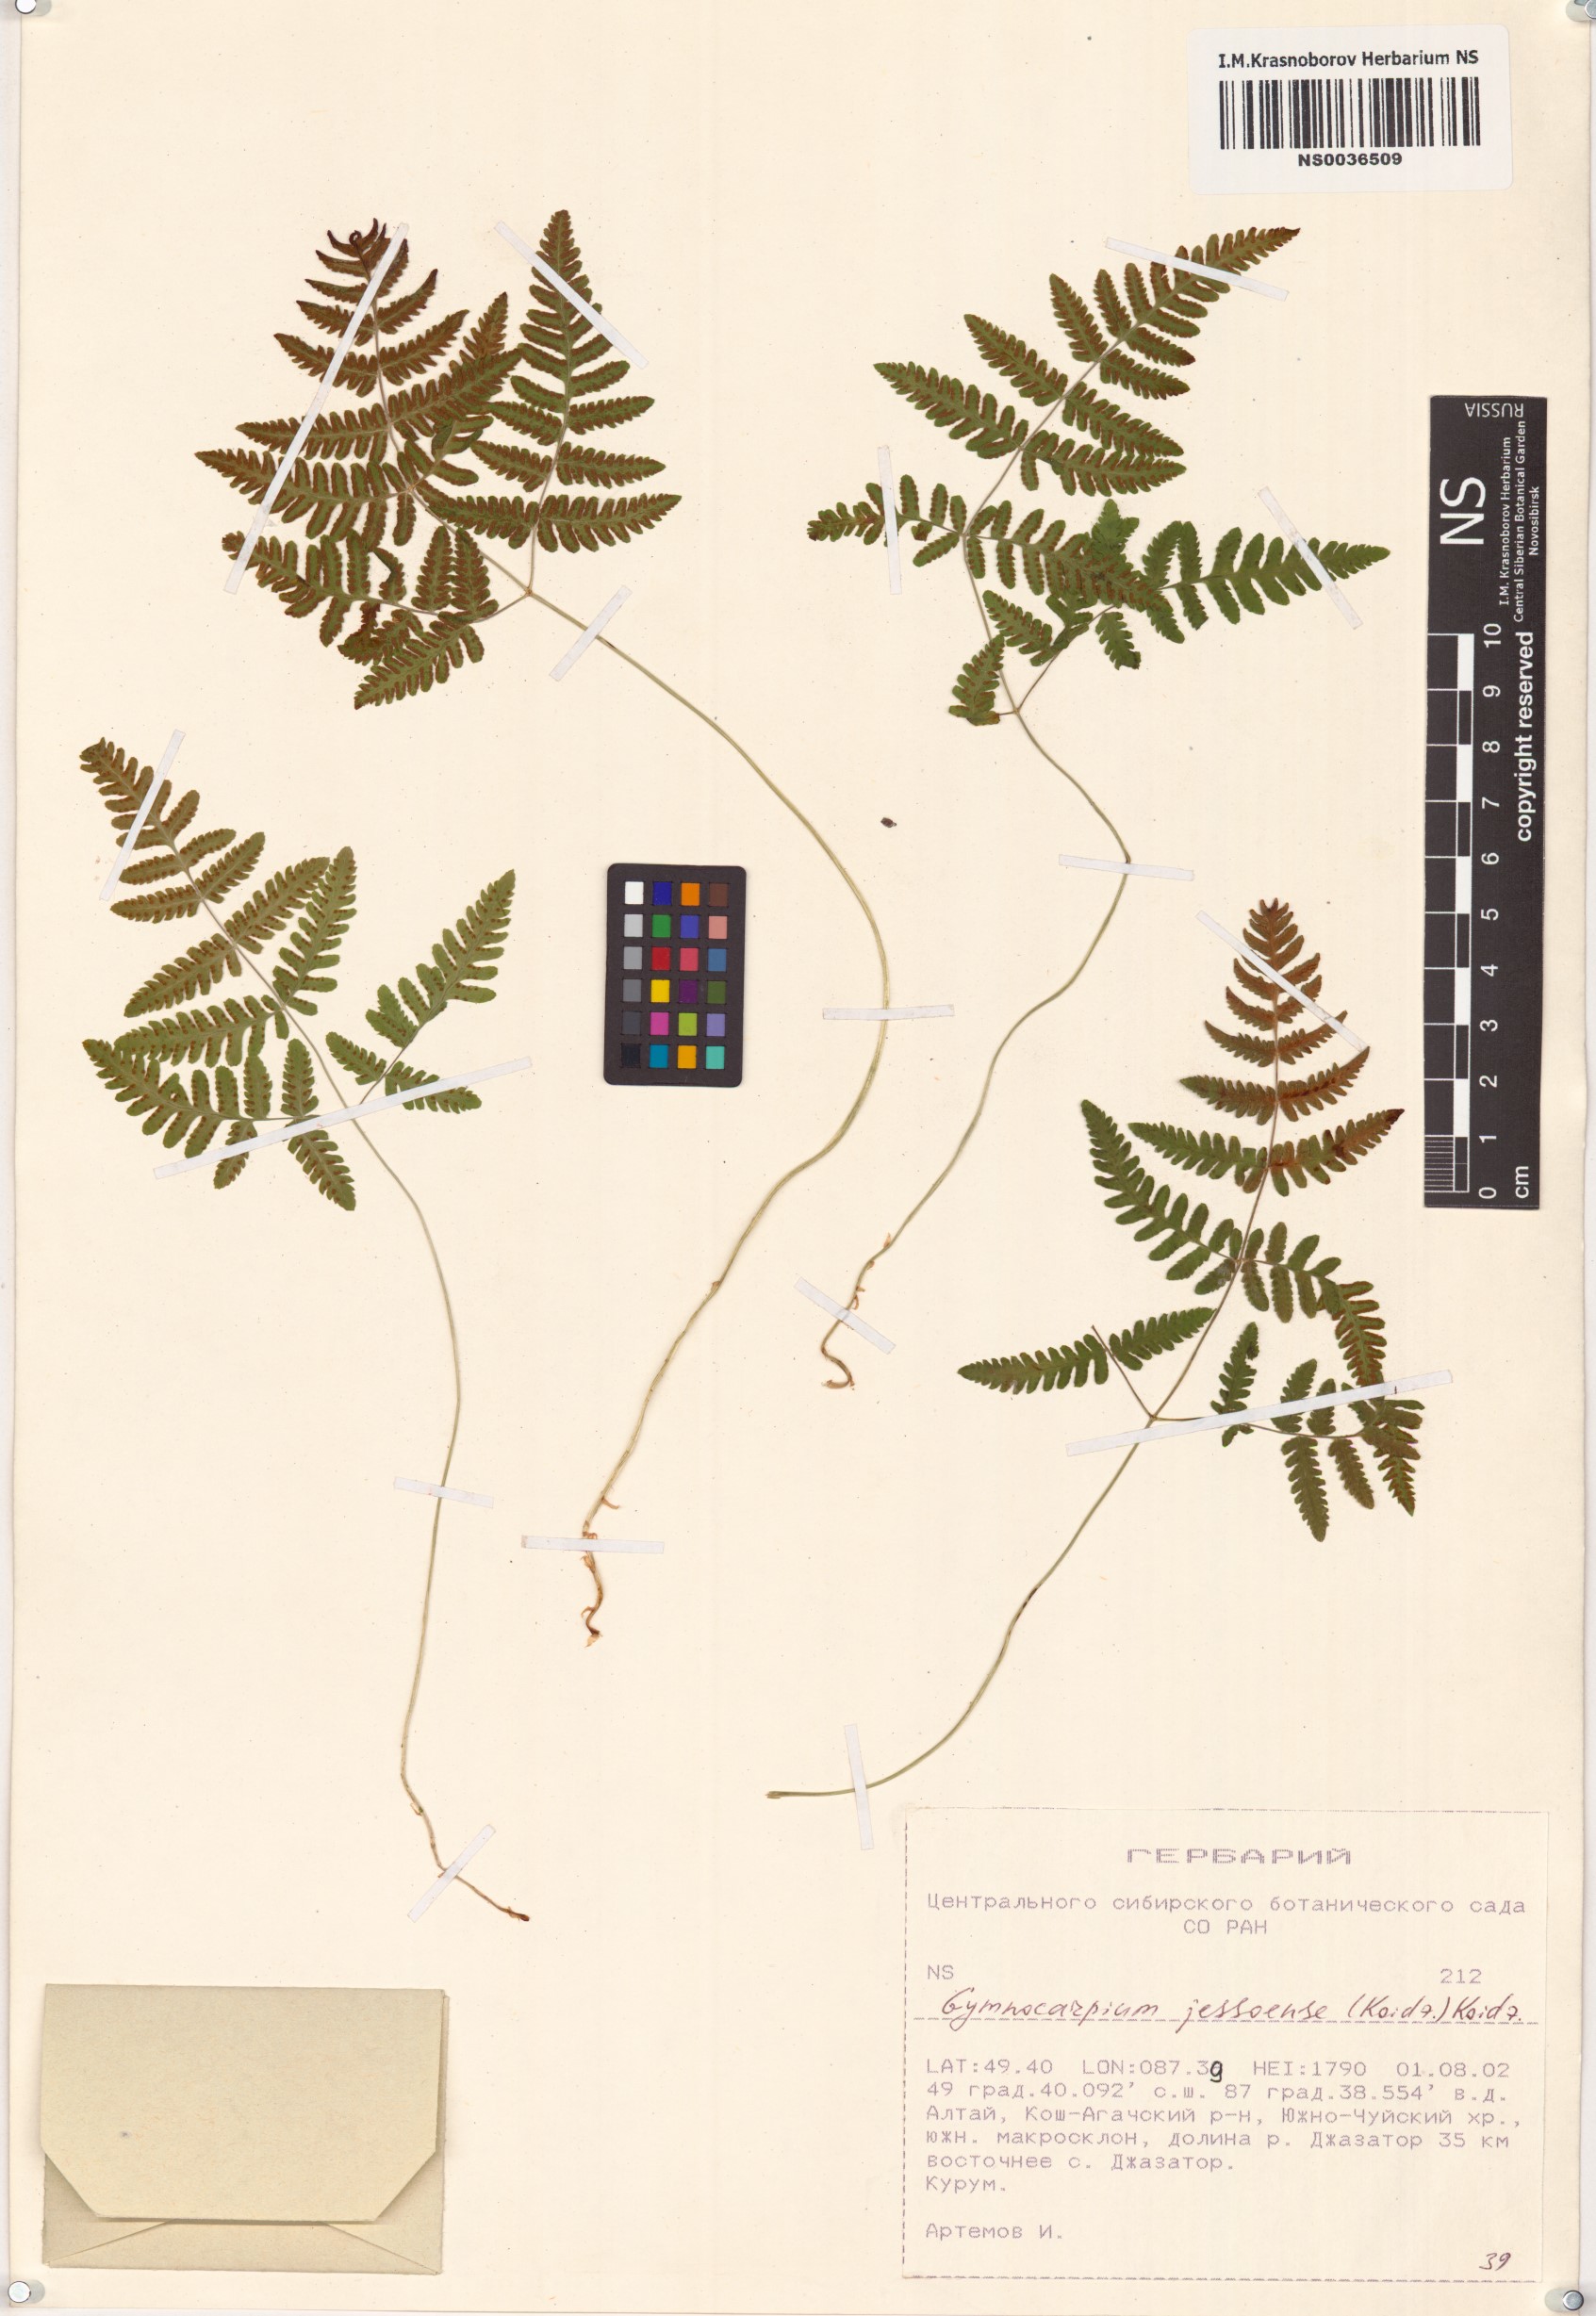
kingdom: Plantae
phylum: Tracheophyta
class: Polypodiopsida
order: Polypodiales
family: Cystopteridaceae
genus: Gymnocarpium
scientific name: Gymnocarpium jessoense
